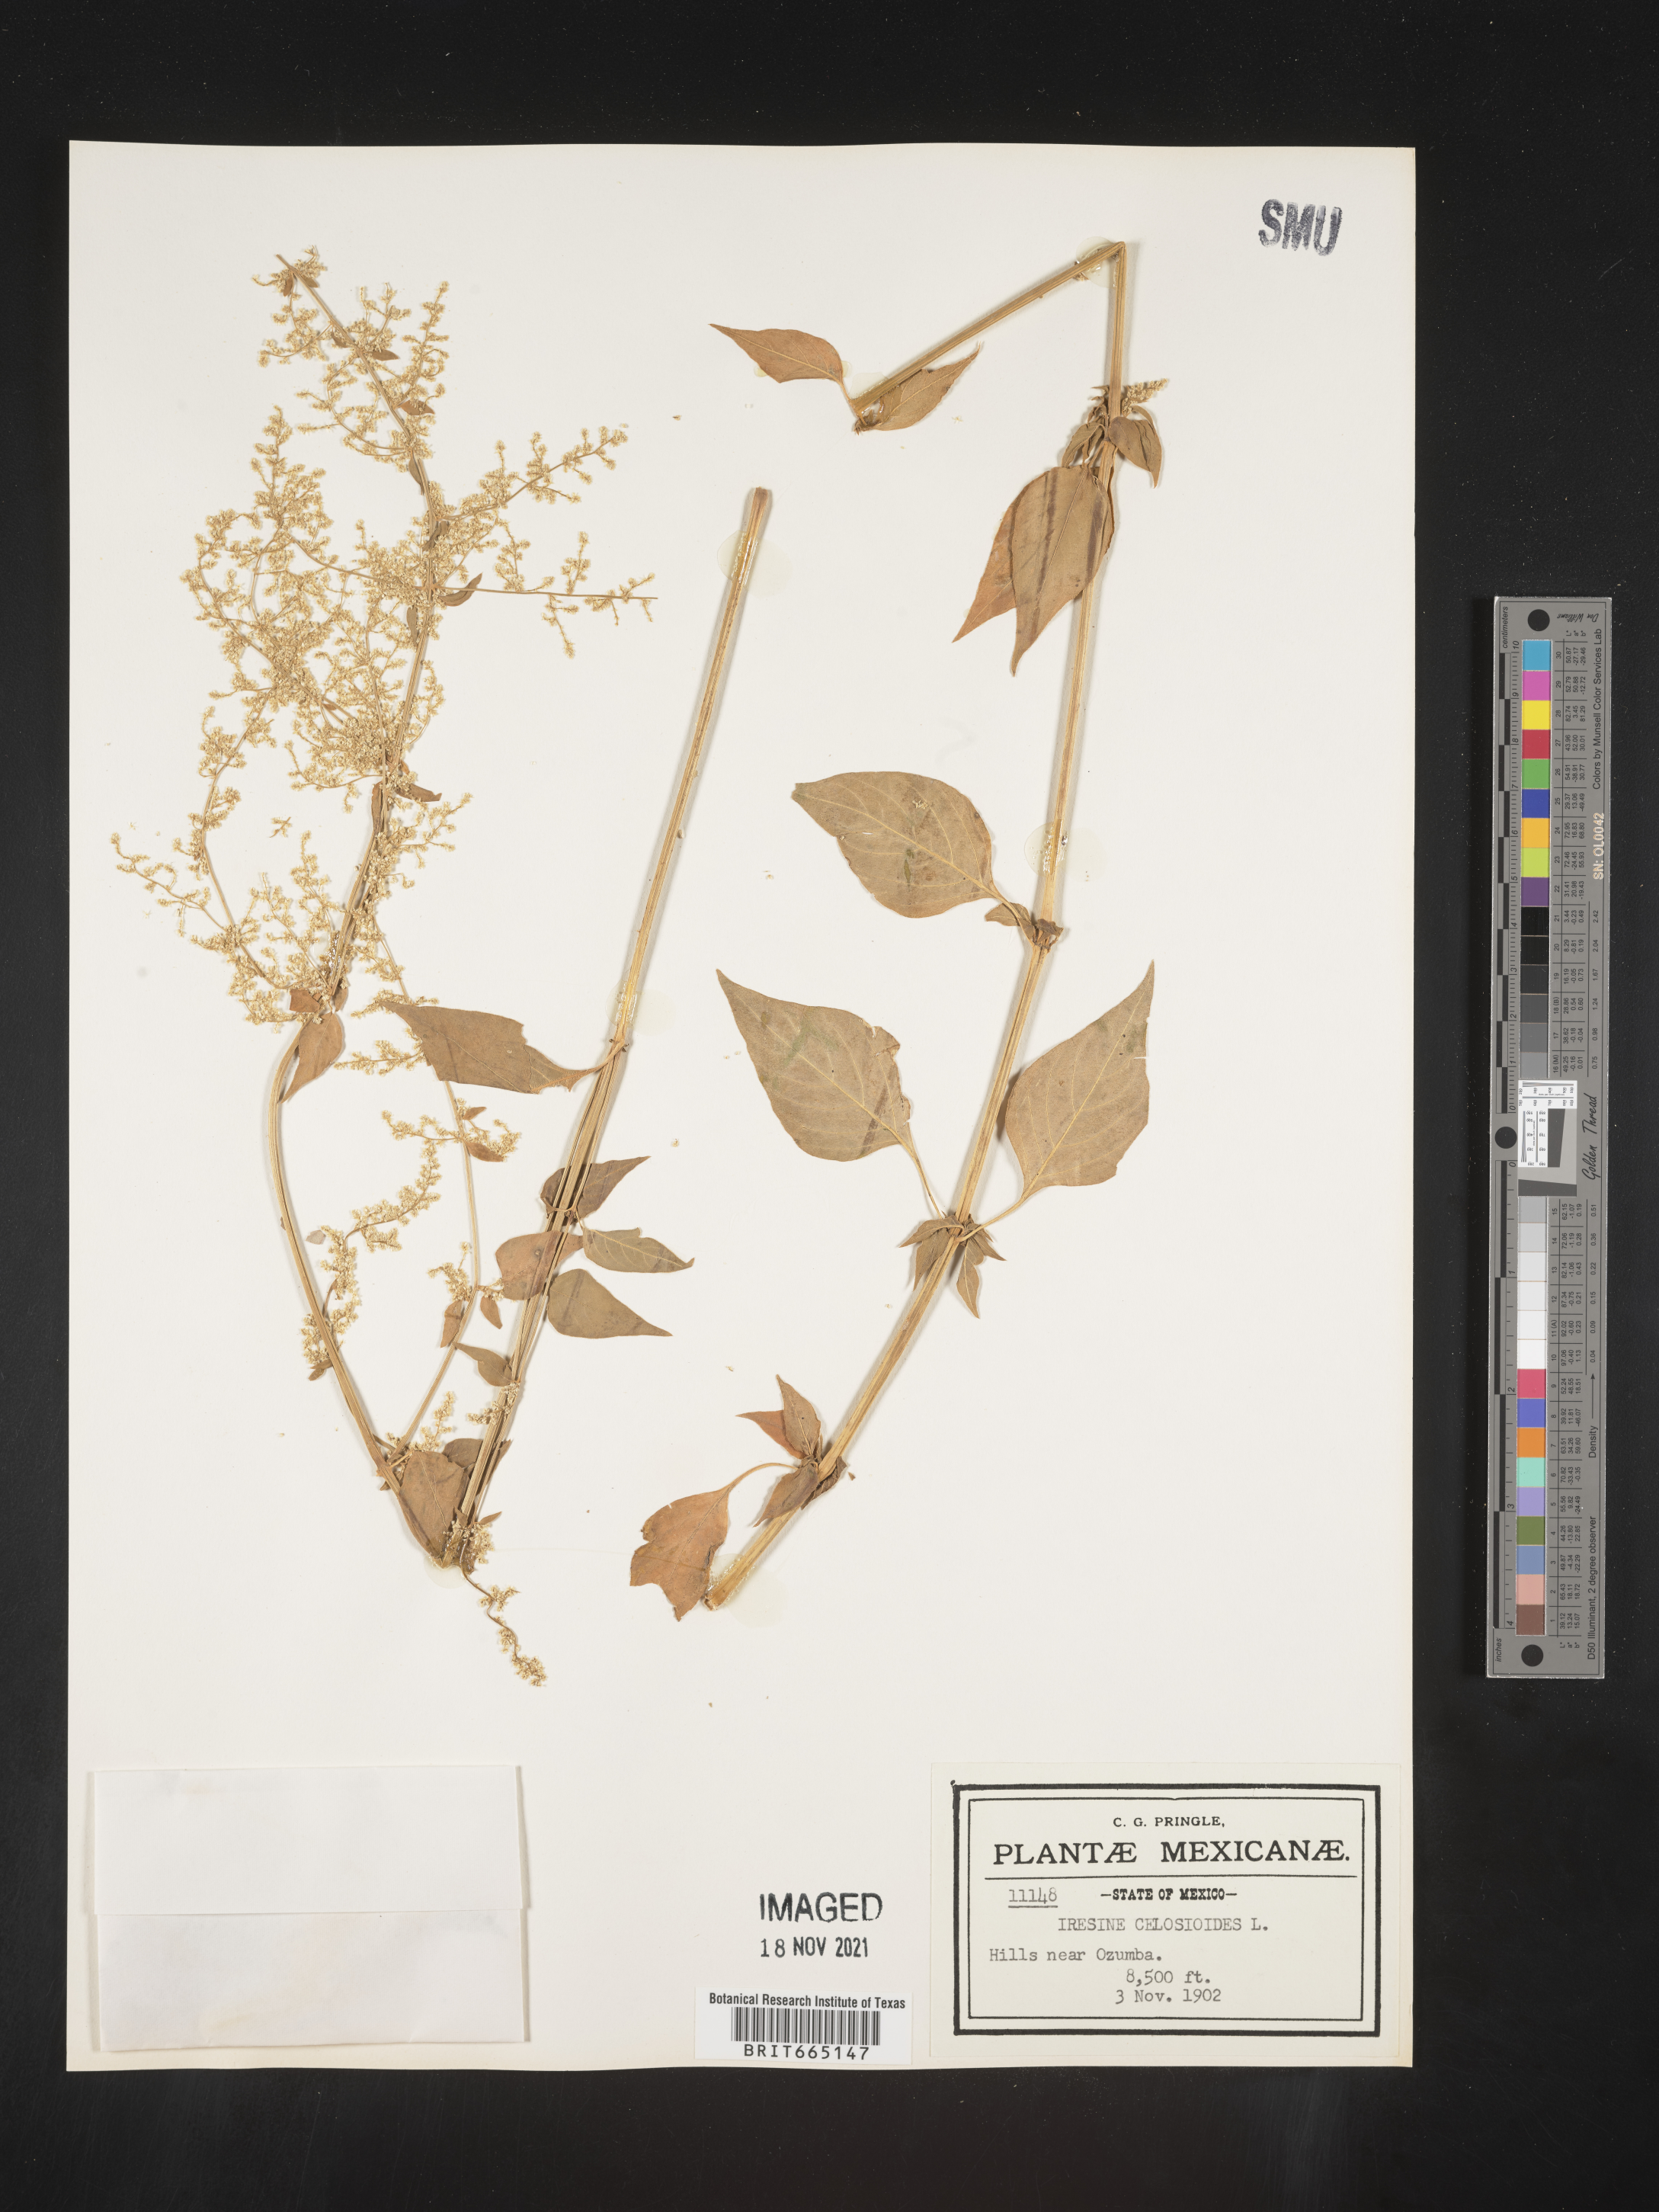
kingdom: Plantae
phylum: Tracheophyta
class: Magnoliopsida
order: Caryophyllales
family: Amaranthaceae
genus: Iresine
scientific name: Iresine
